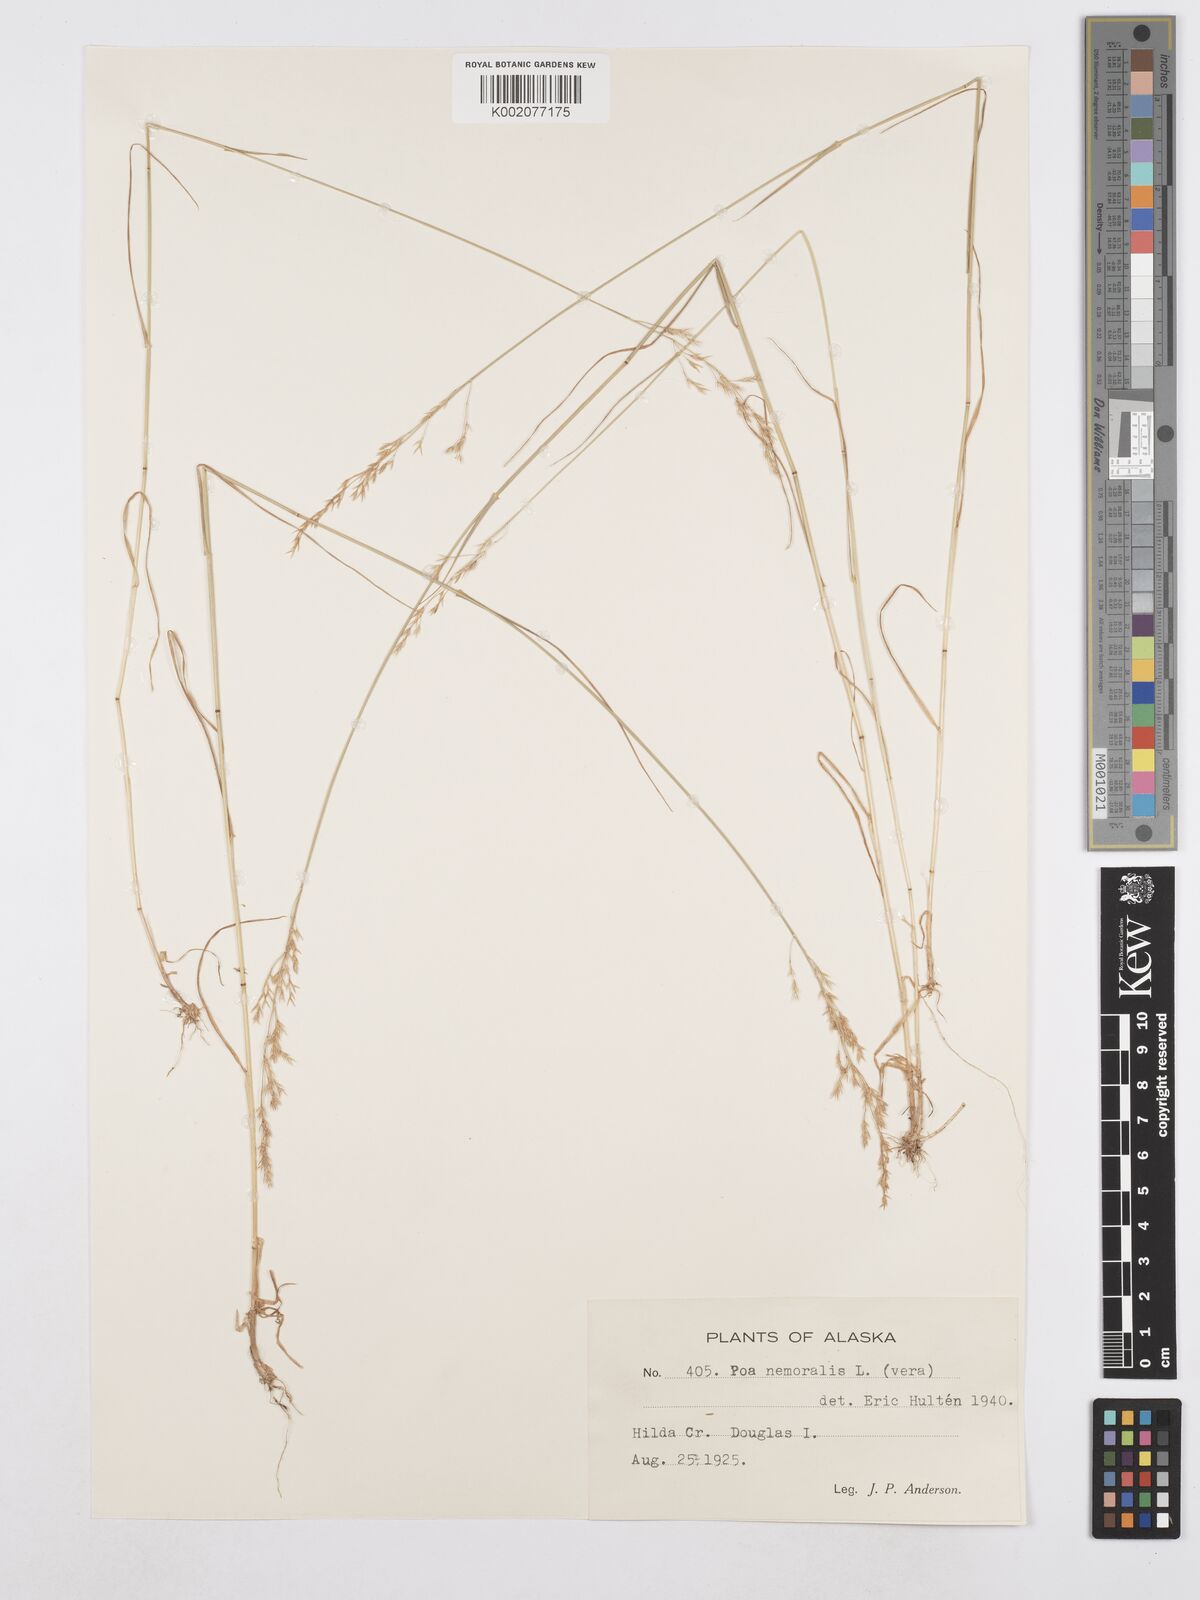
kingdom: Plantae
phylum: Tracheophyta
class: Liliopsida
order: Poales
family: Poaceae
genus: Poa
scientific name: Poa nemoralis
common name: Wood bluegrass
